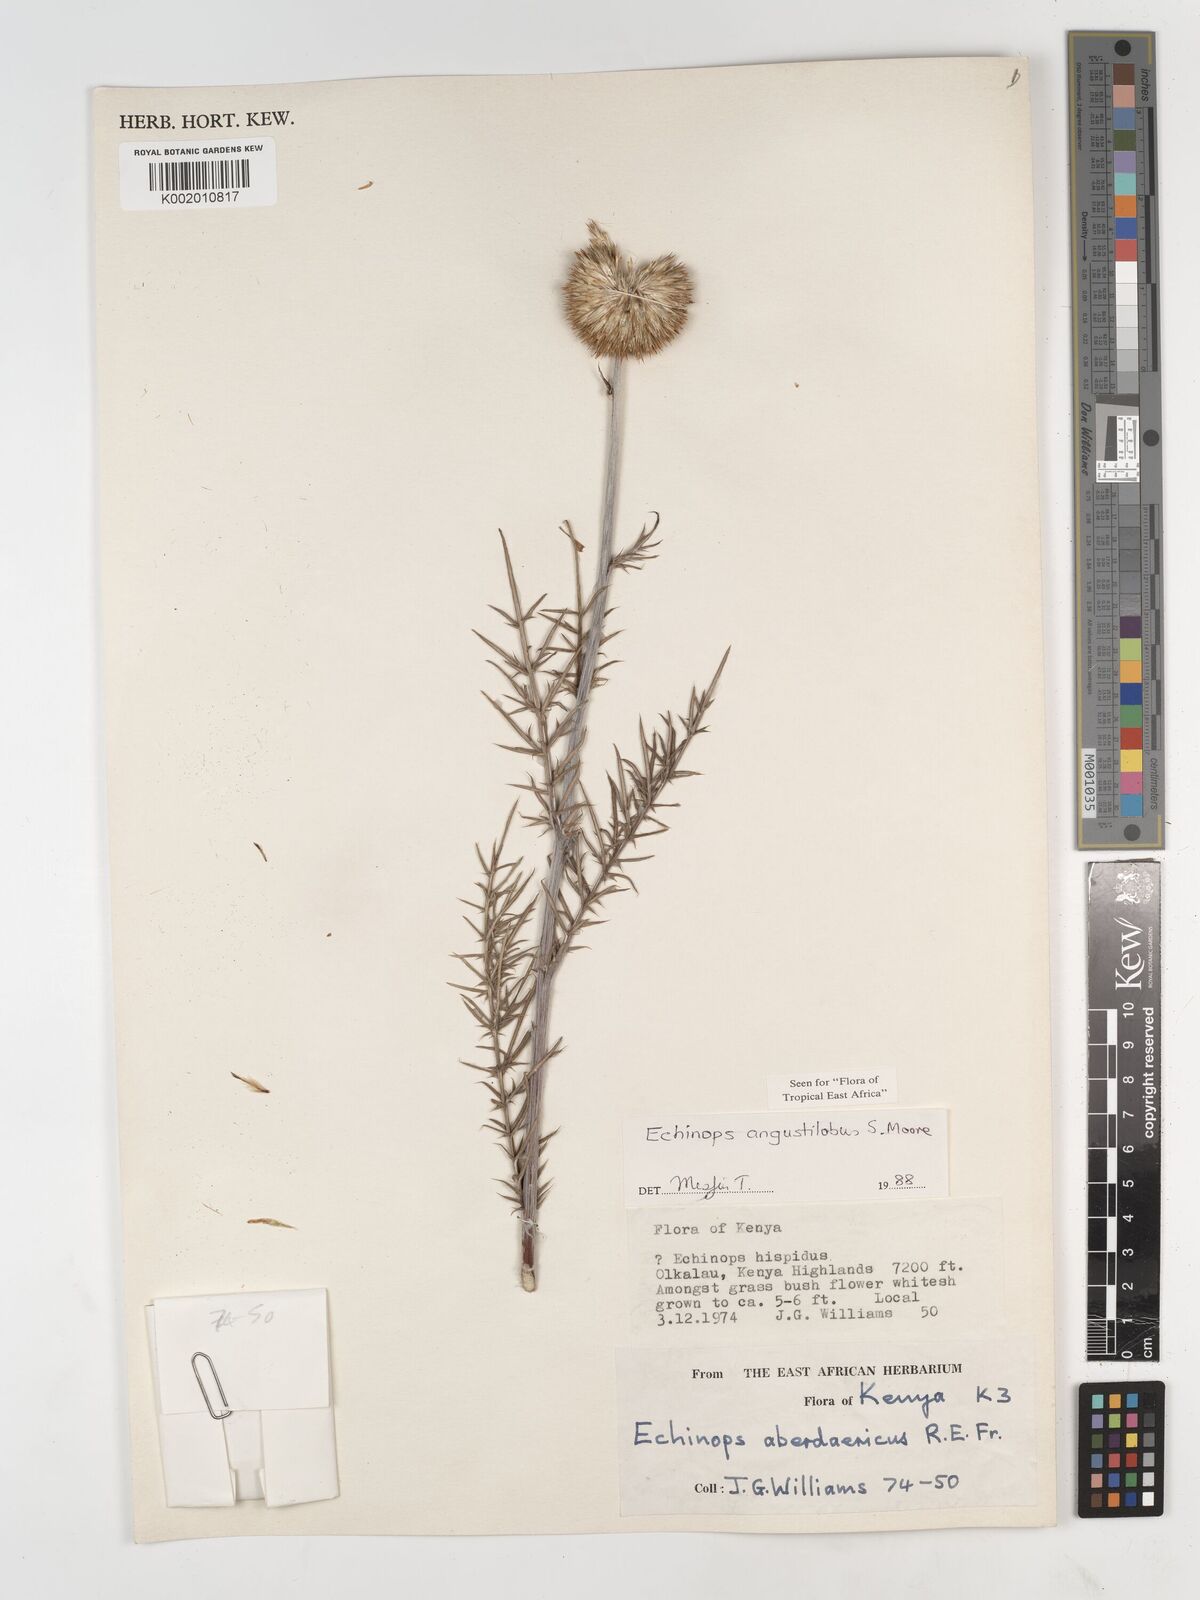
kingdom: Plantae
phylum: Tracheophyta
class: Magnoliopsida
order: Asterales
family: Asteraceae
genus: Echinops
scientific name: Echinops angustilobus
